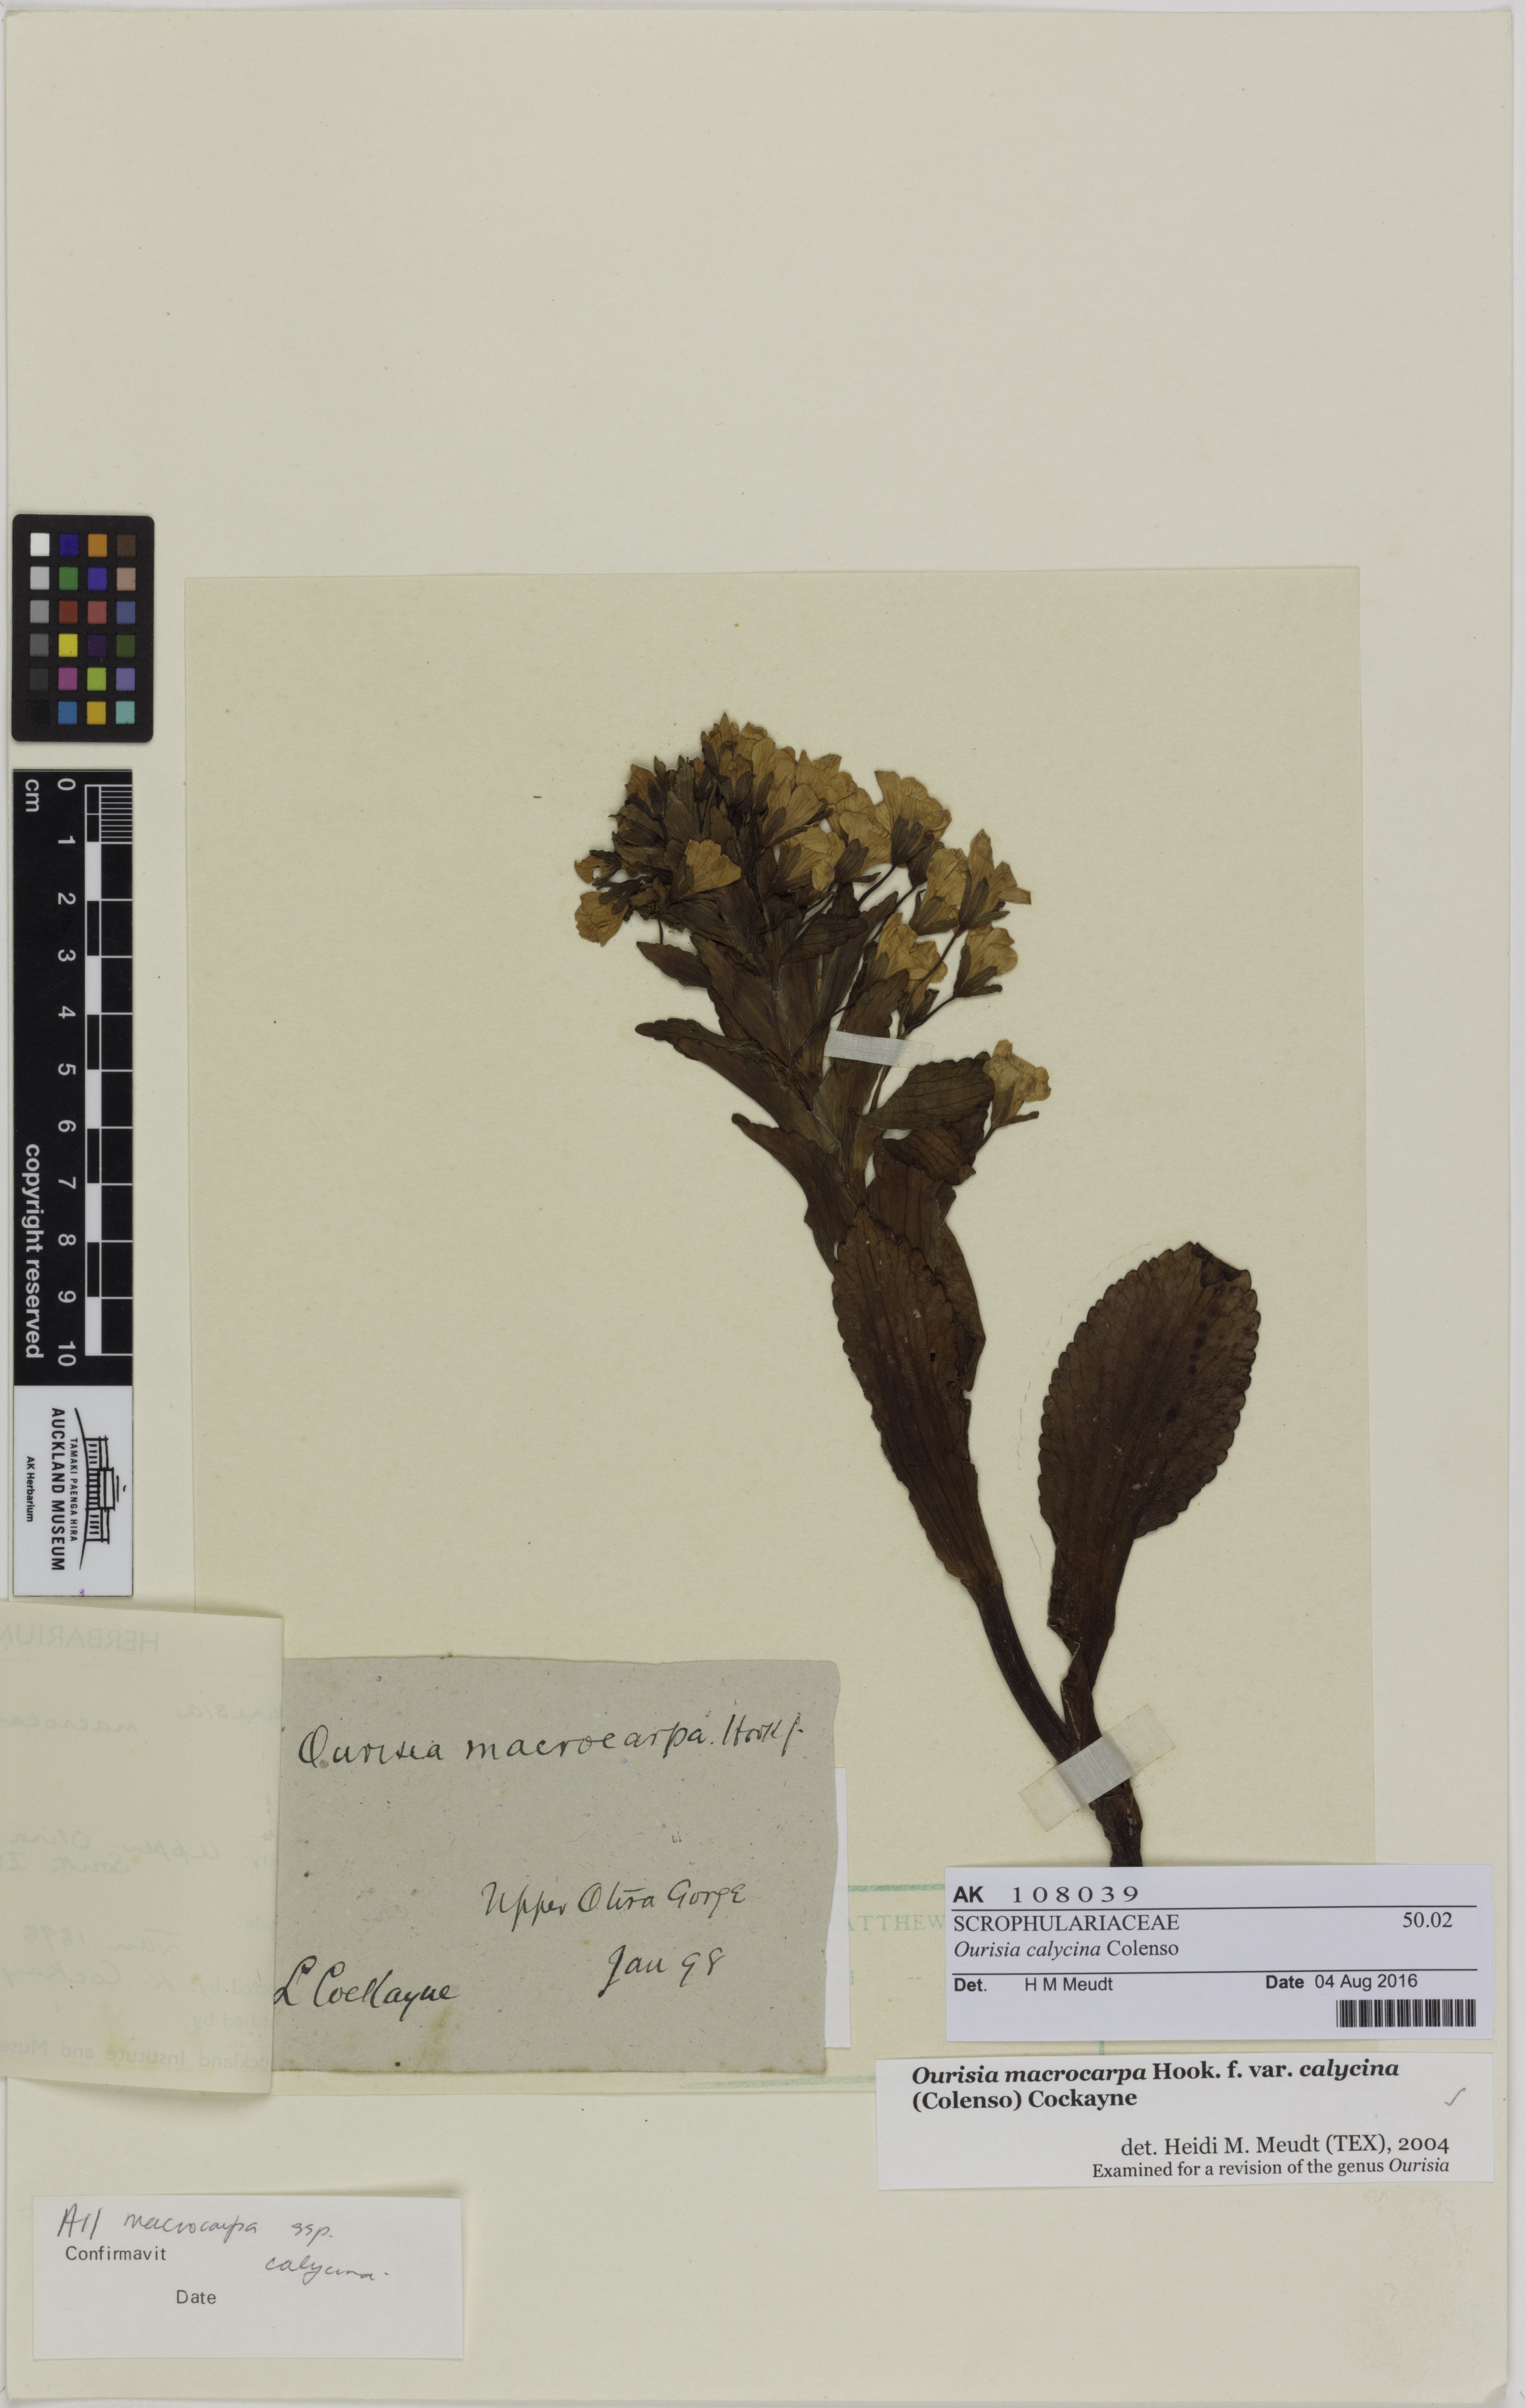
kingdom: Plantae
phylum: Tracheophyta
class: Magnoliopsida
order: Lamiales
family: Plantaginaceae
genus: Ourisia
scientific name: Ourisia calycina
